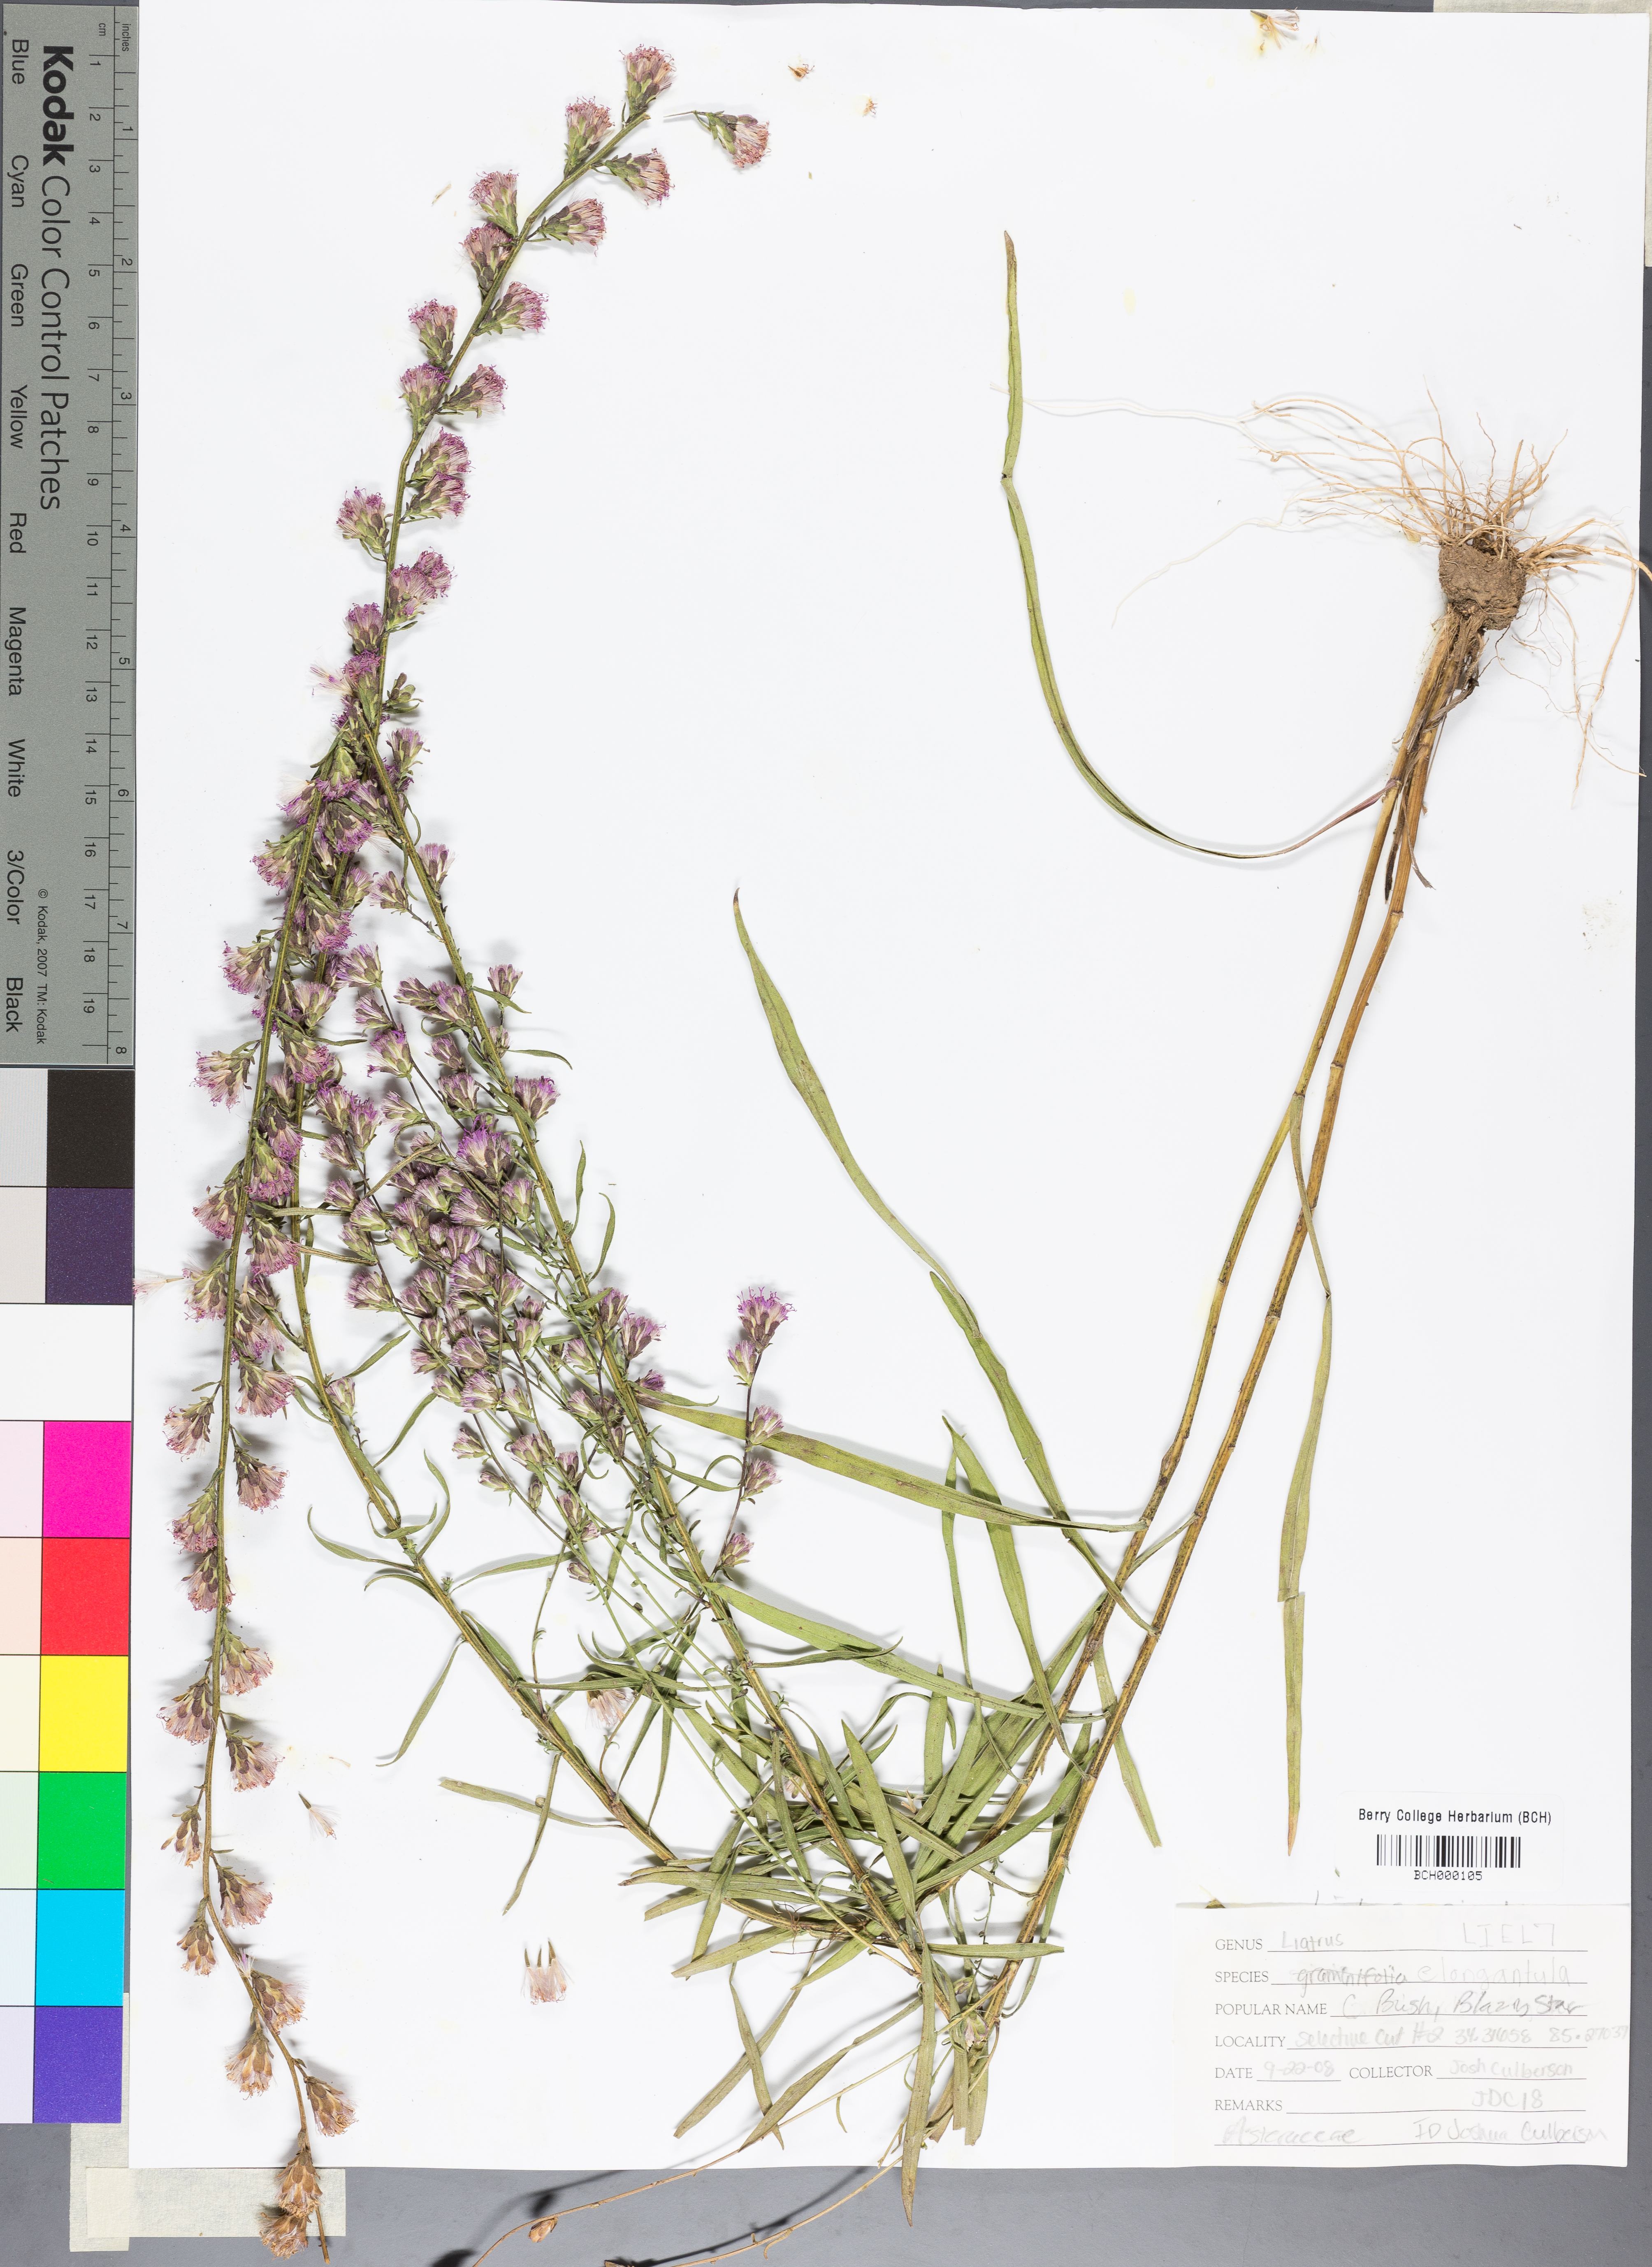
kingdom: Plantae
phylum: Tracheophyta
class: Magnoliopsida
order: Asterales
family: Asteraceae
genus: Liatris
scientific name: Liatris elegantula
